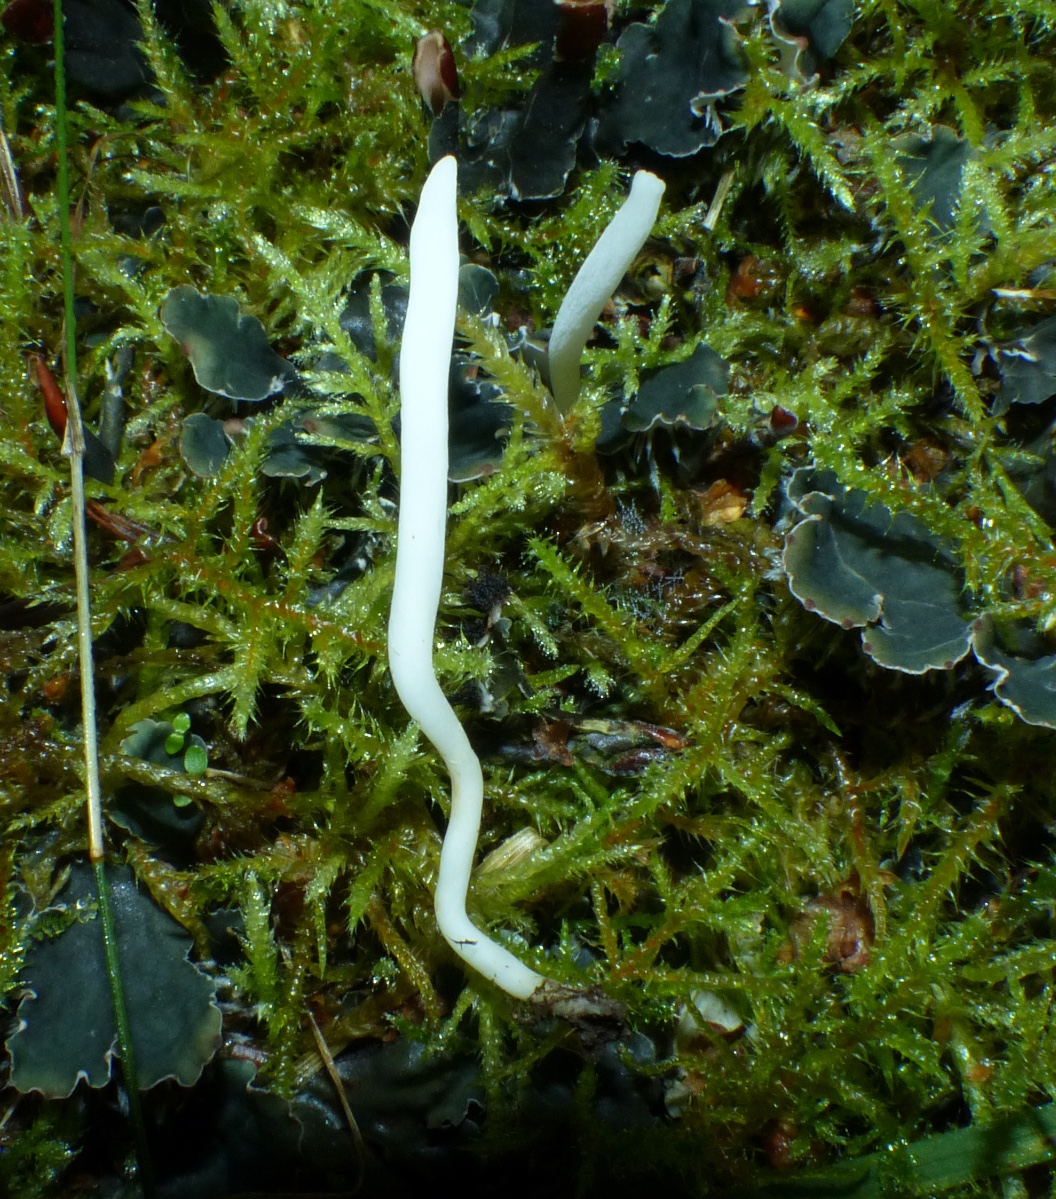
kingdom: Fungi
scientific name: Fungi
